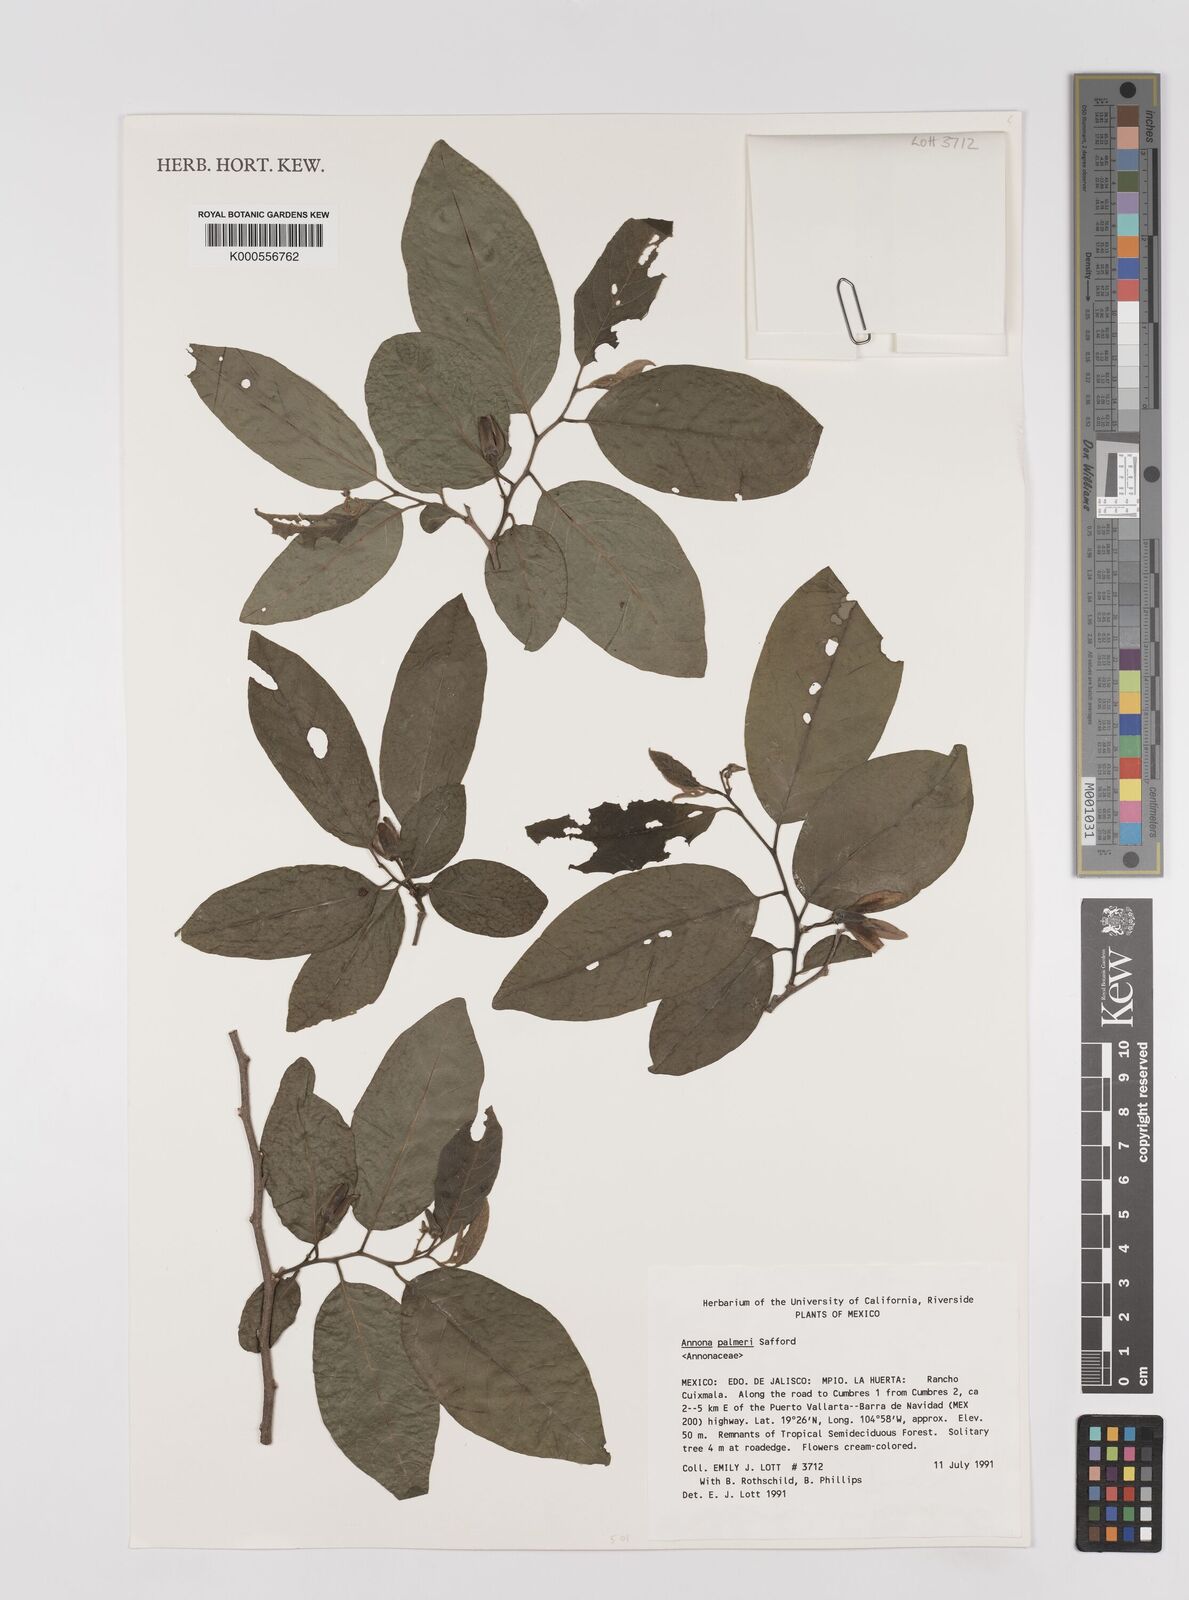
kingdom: Plantae
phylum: Tracheophyta
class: Magnoliopsida
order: Magnoliales
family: Annonaceae
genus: Annona
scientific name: Annona palmeri
